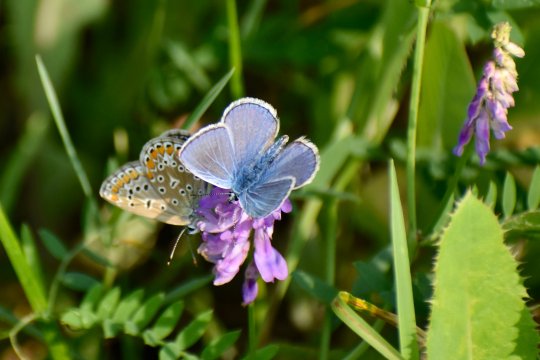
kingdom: Animalia
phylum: Arthropoda
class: Insecta
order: Lepidoptera
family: Lycaenidae
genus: Polyommatus
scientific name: Polyommatus icarus
